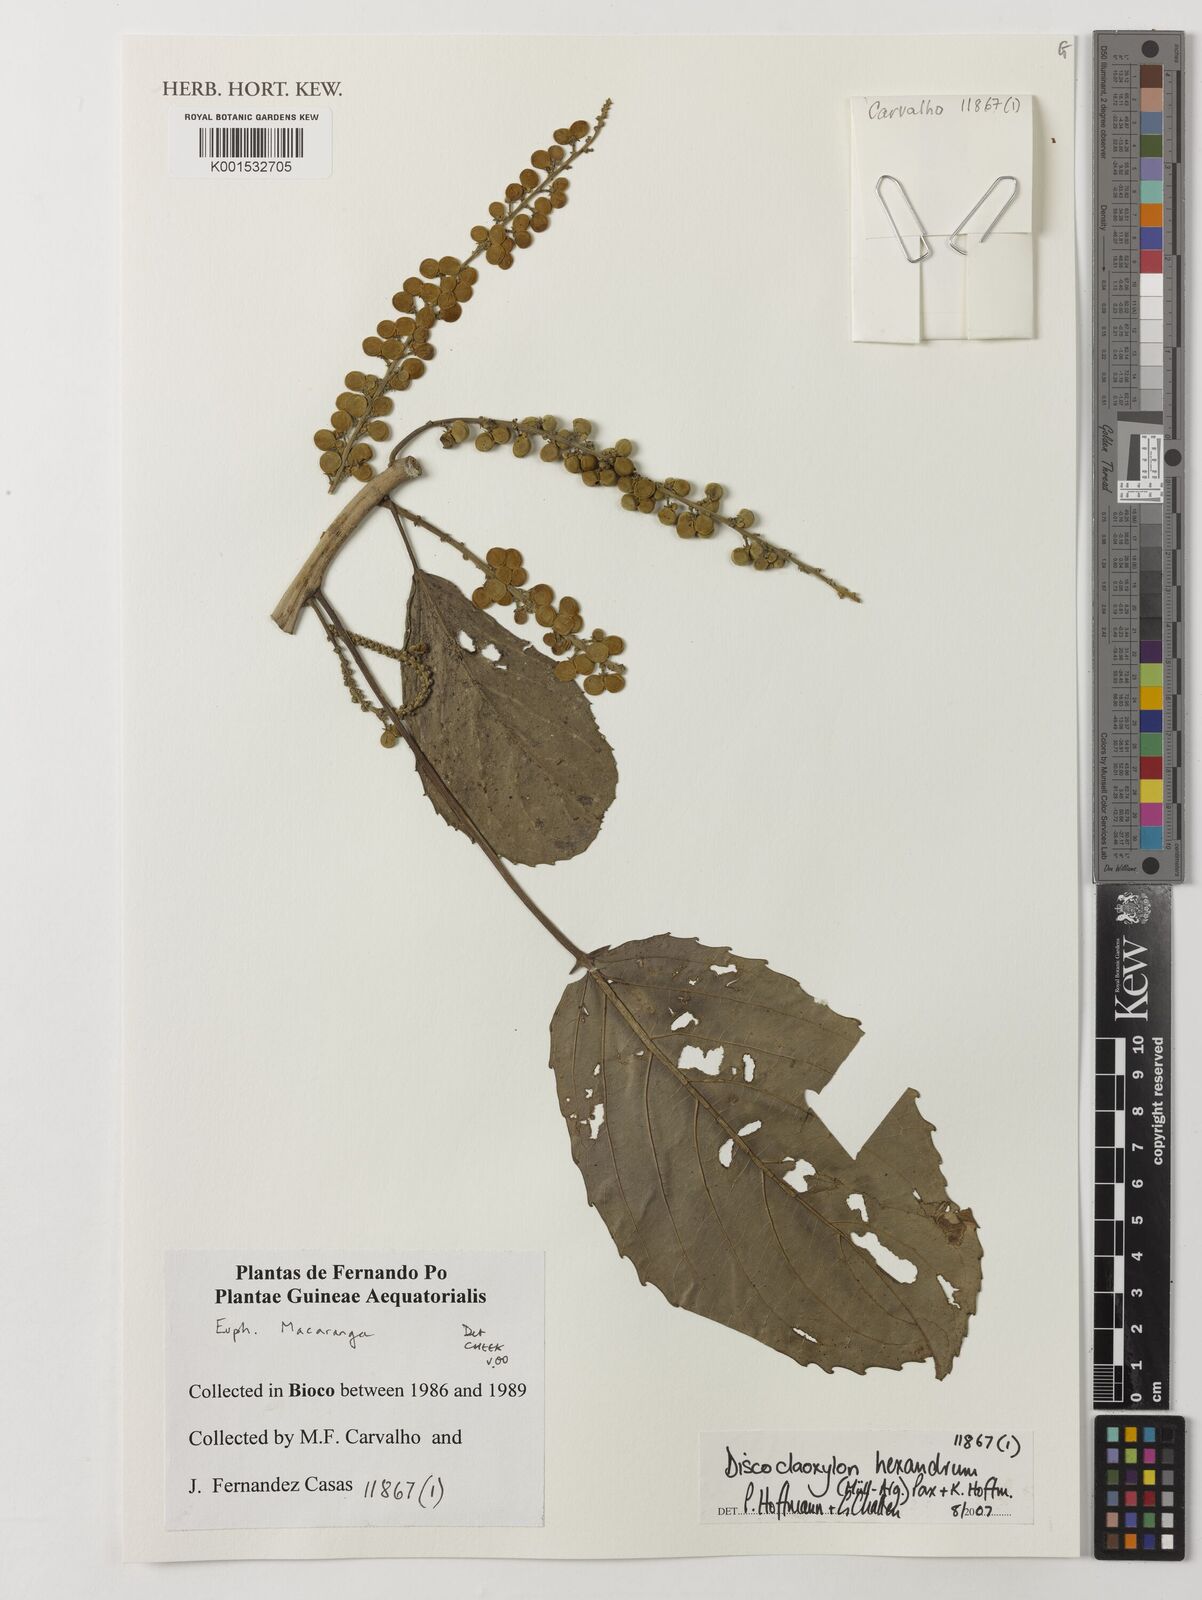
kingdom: Plantae
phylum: Tracheophyta
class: Magnoliopsida
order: Malpighiales
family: Euphorbiaceae
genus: Discoclaoxylon
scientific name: Discoclaoxylon hexandrum
